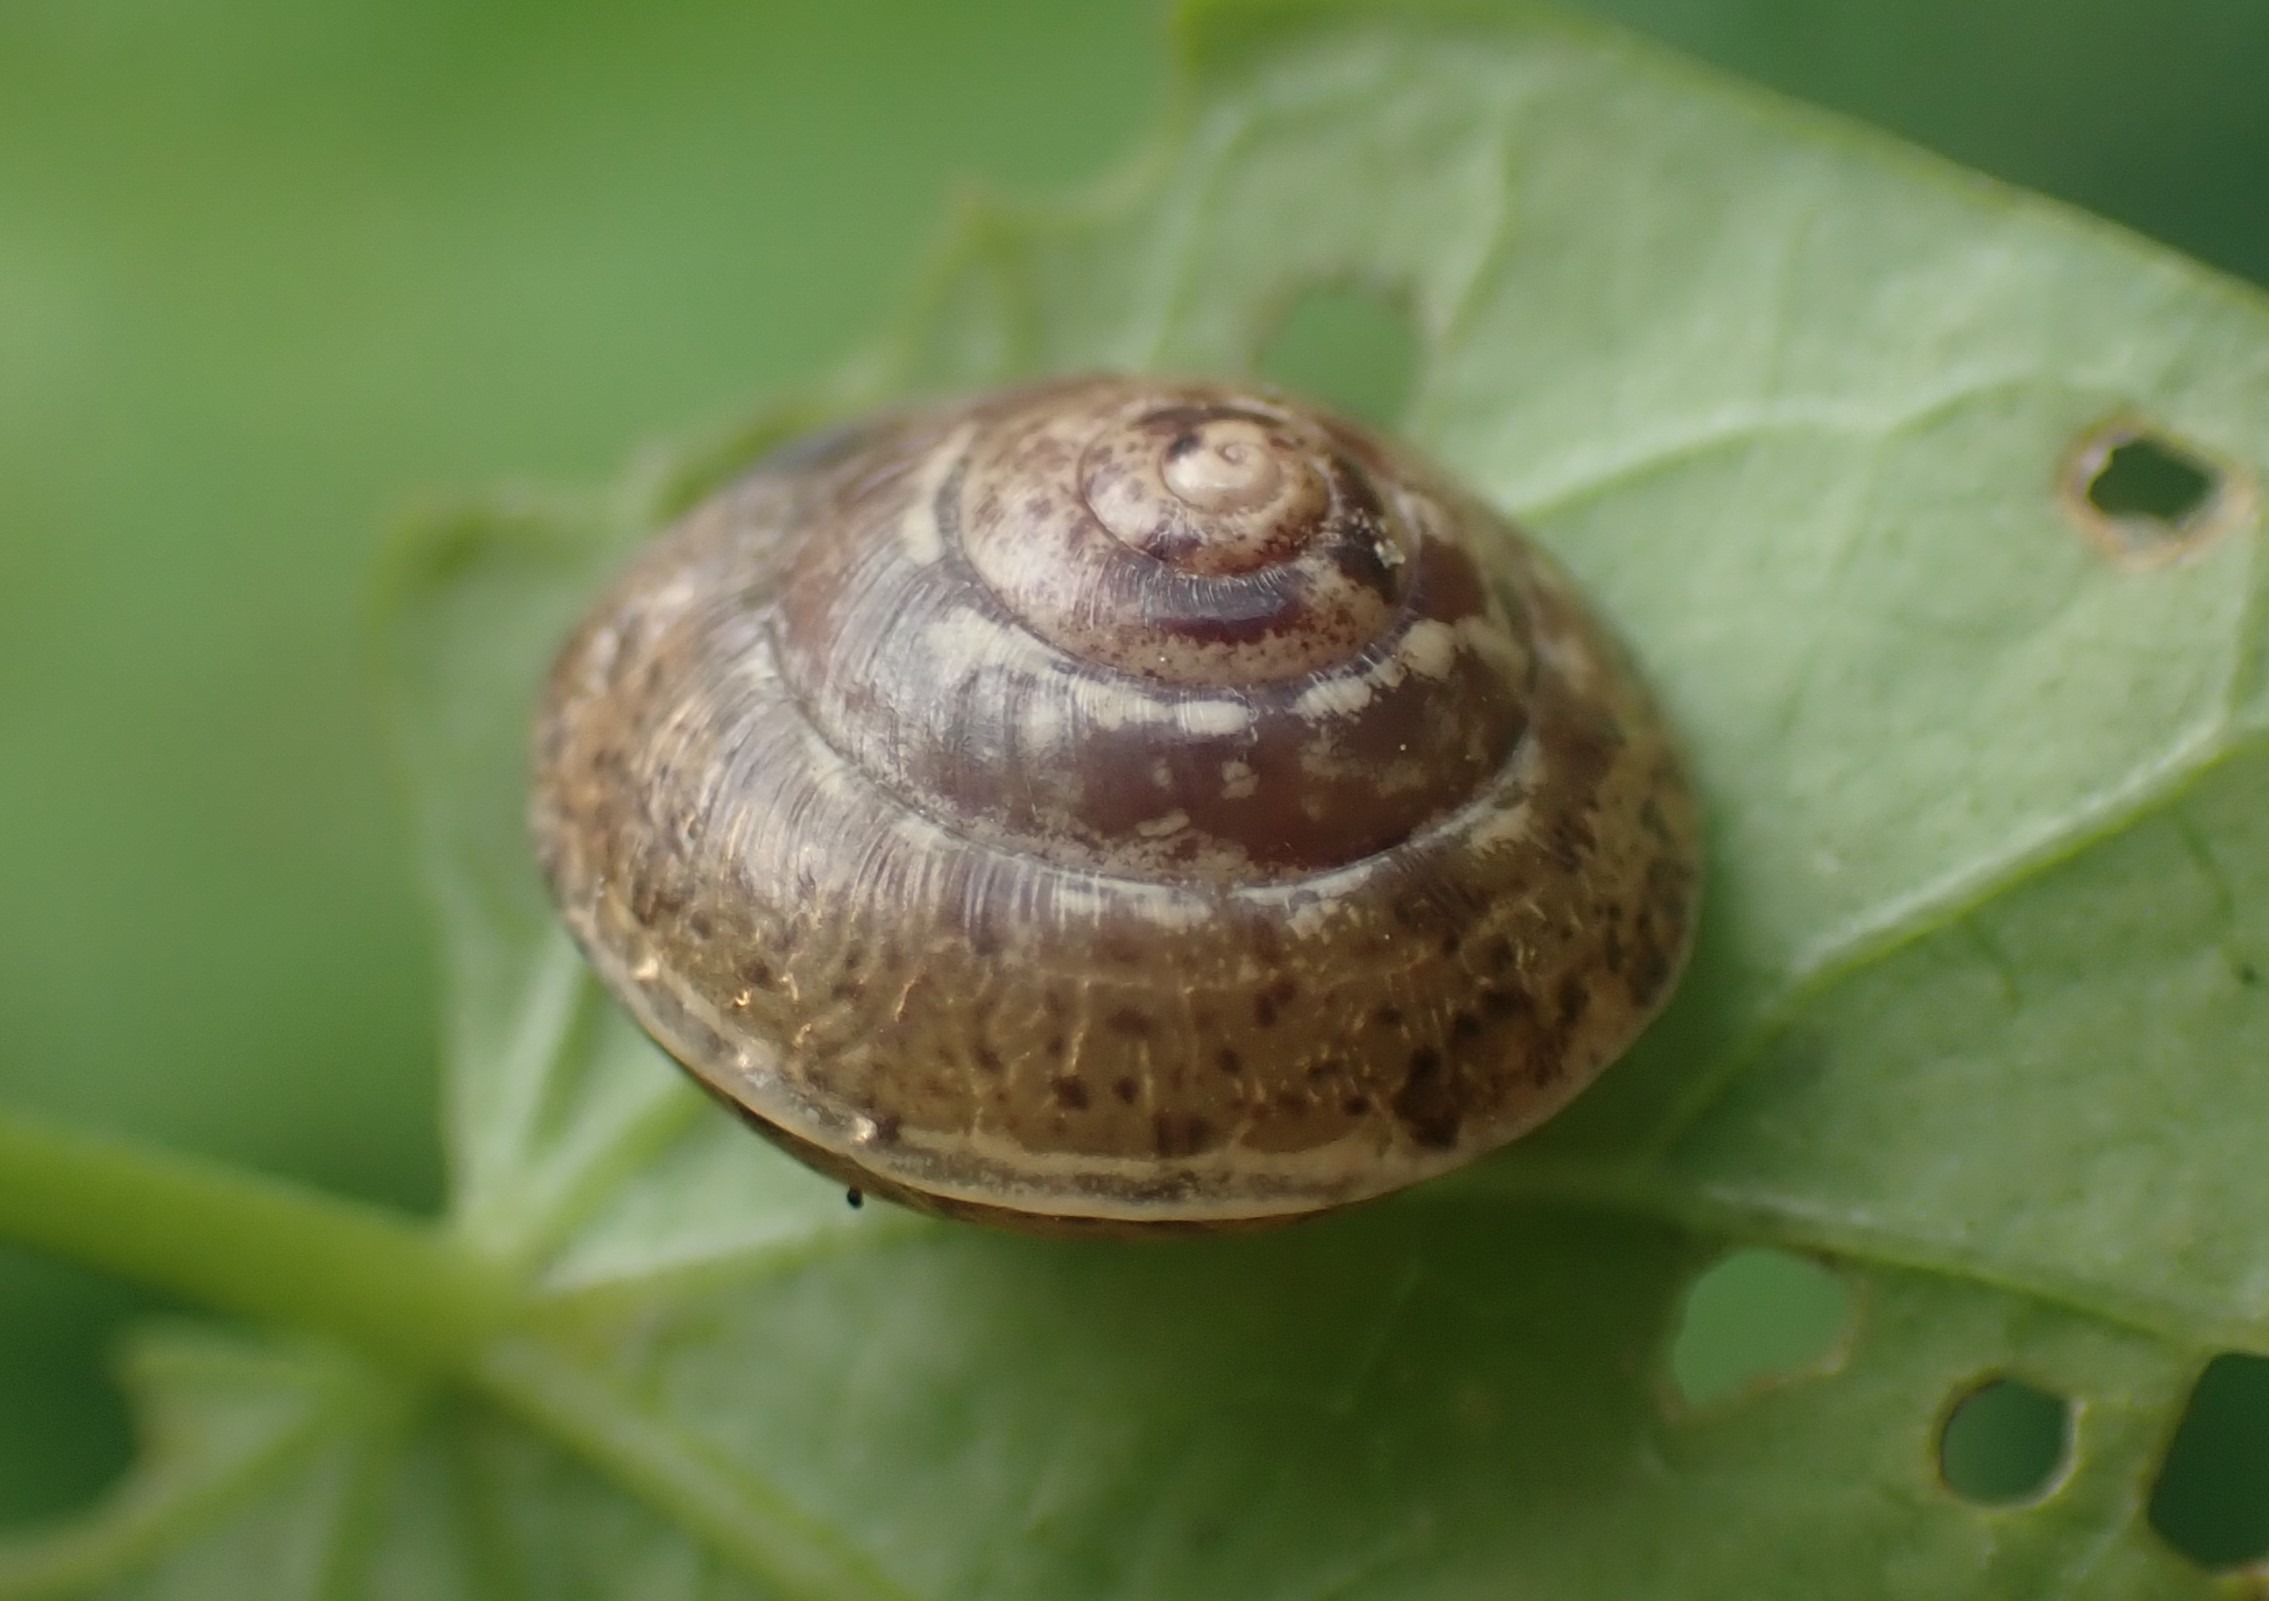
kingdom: Animalia
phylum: Mollusca
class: Gastropoda
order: Stylommatophora
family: Hygromiidae
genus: Hygromia
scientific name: Hygromia cinctella
